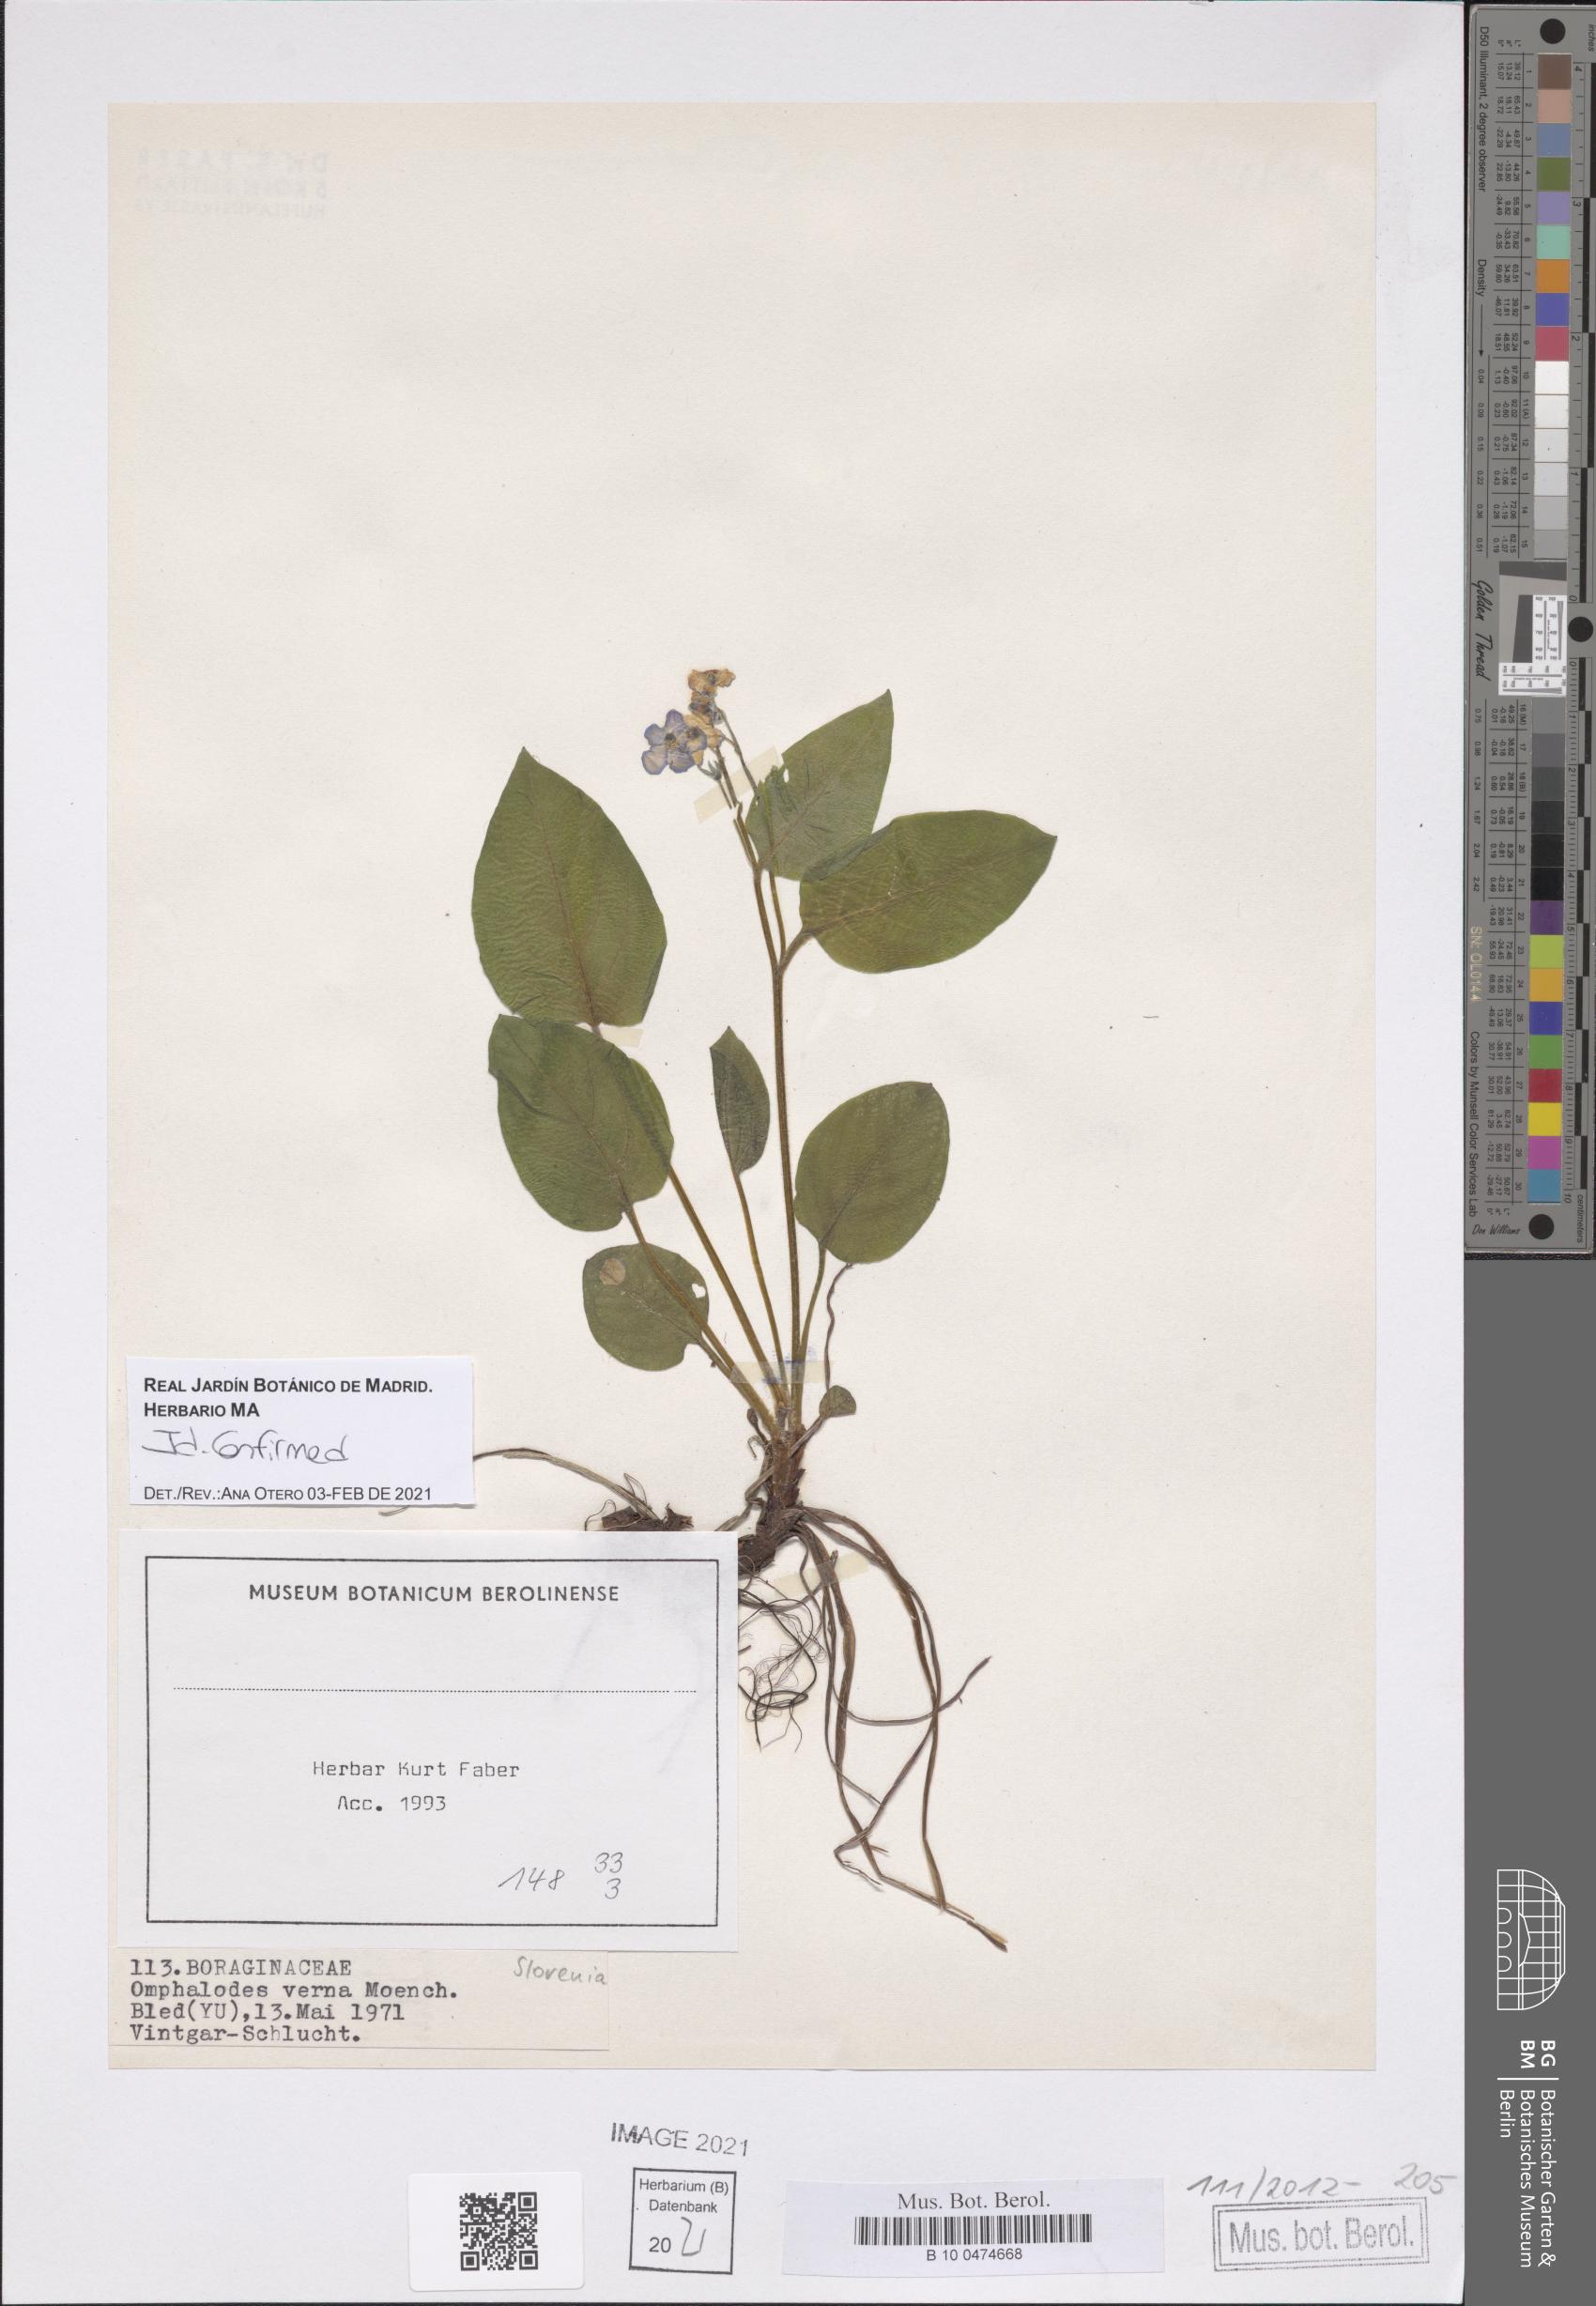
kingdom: Plantae
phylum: Tracheophyta
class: Magnoliopsida
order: Boraginales
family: Boraginaceae
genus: Omphalodes
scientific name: Omphalodes verna
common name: Blue-eyed-mary
